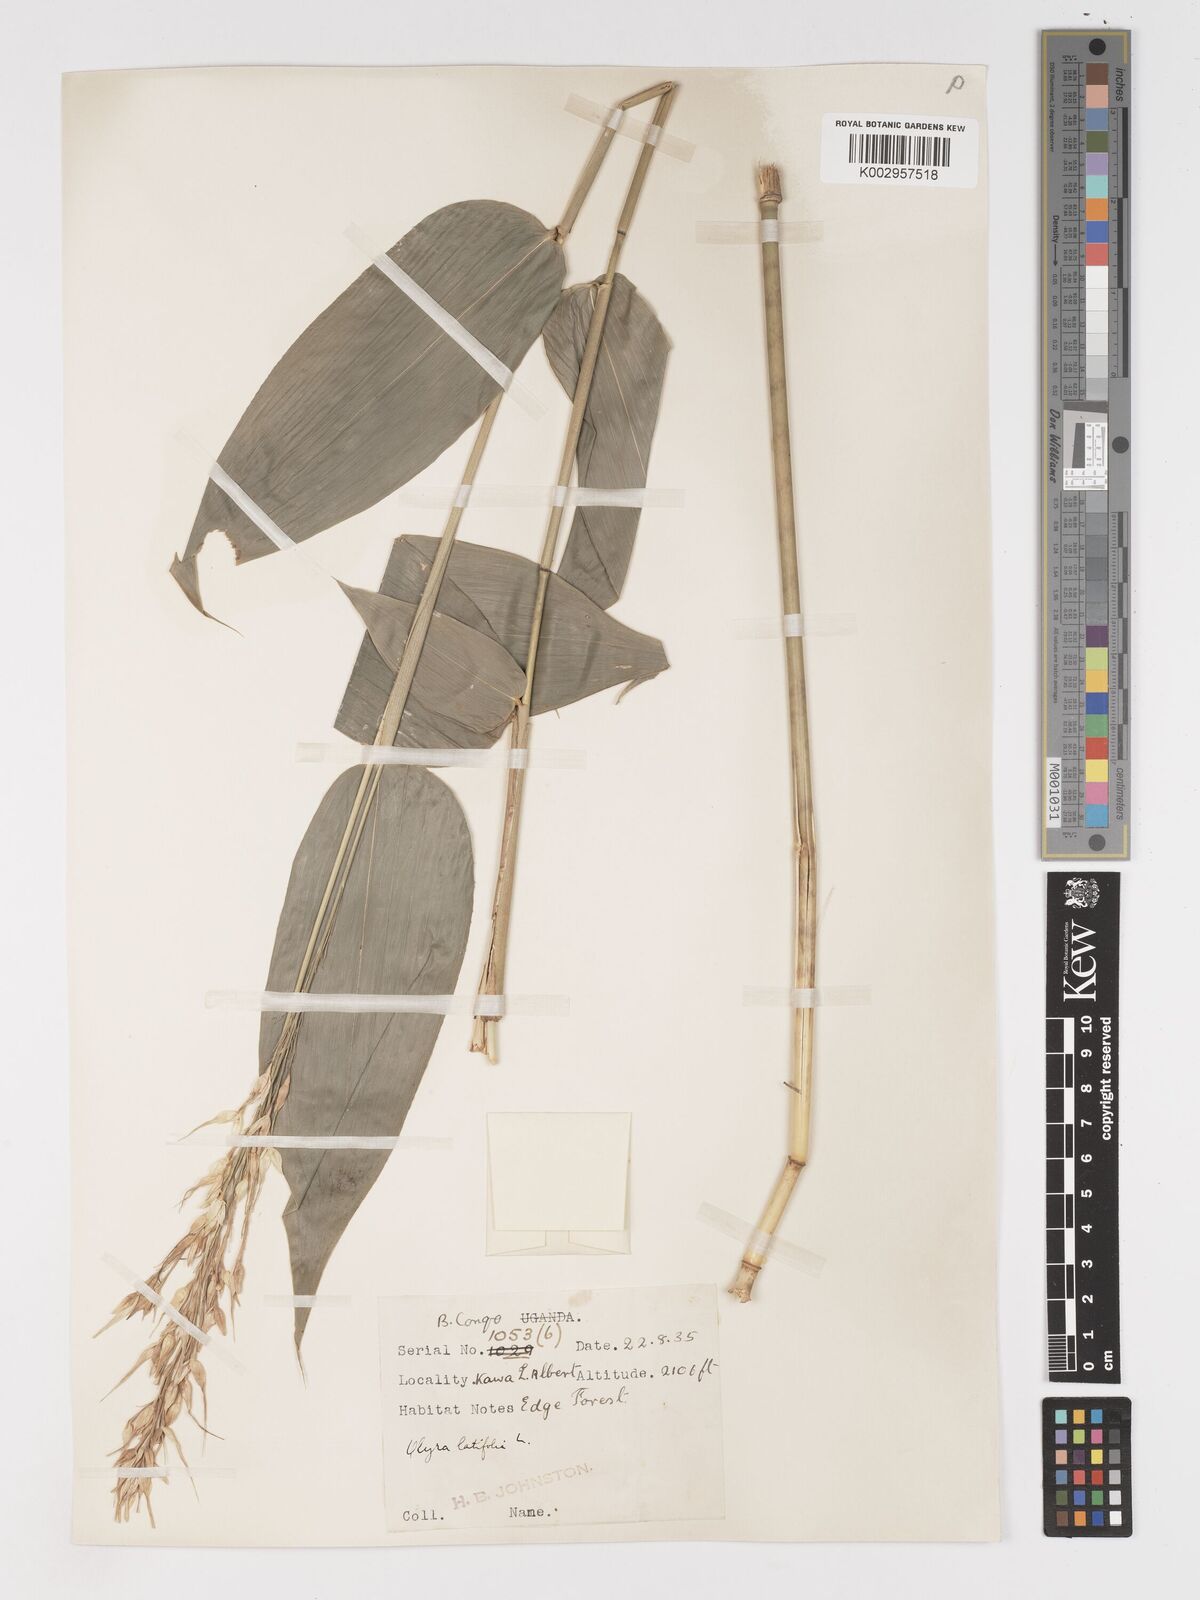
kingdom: Plantae
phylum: Tracheophyta
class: Liliopsida
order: Poales
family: Poaceae
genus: Olyra
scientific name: Olyra latifolia
